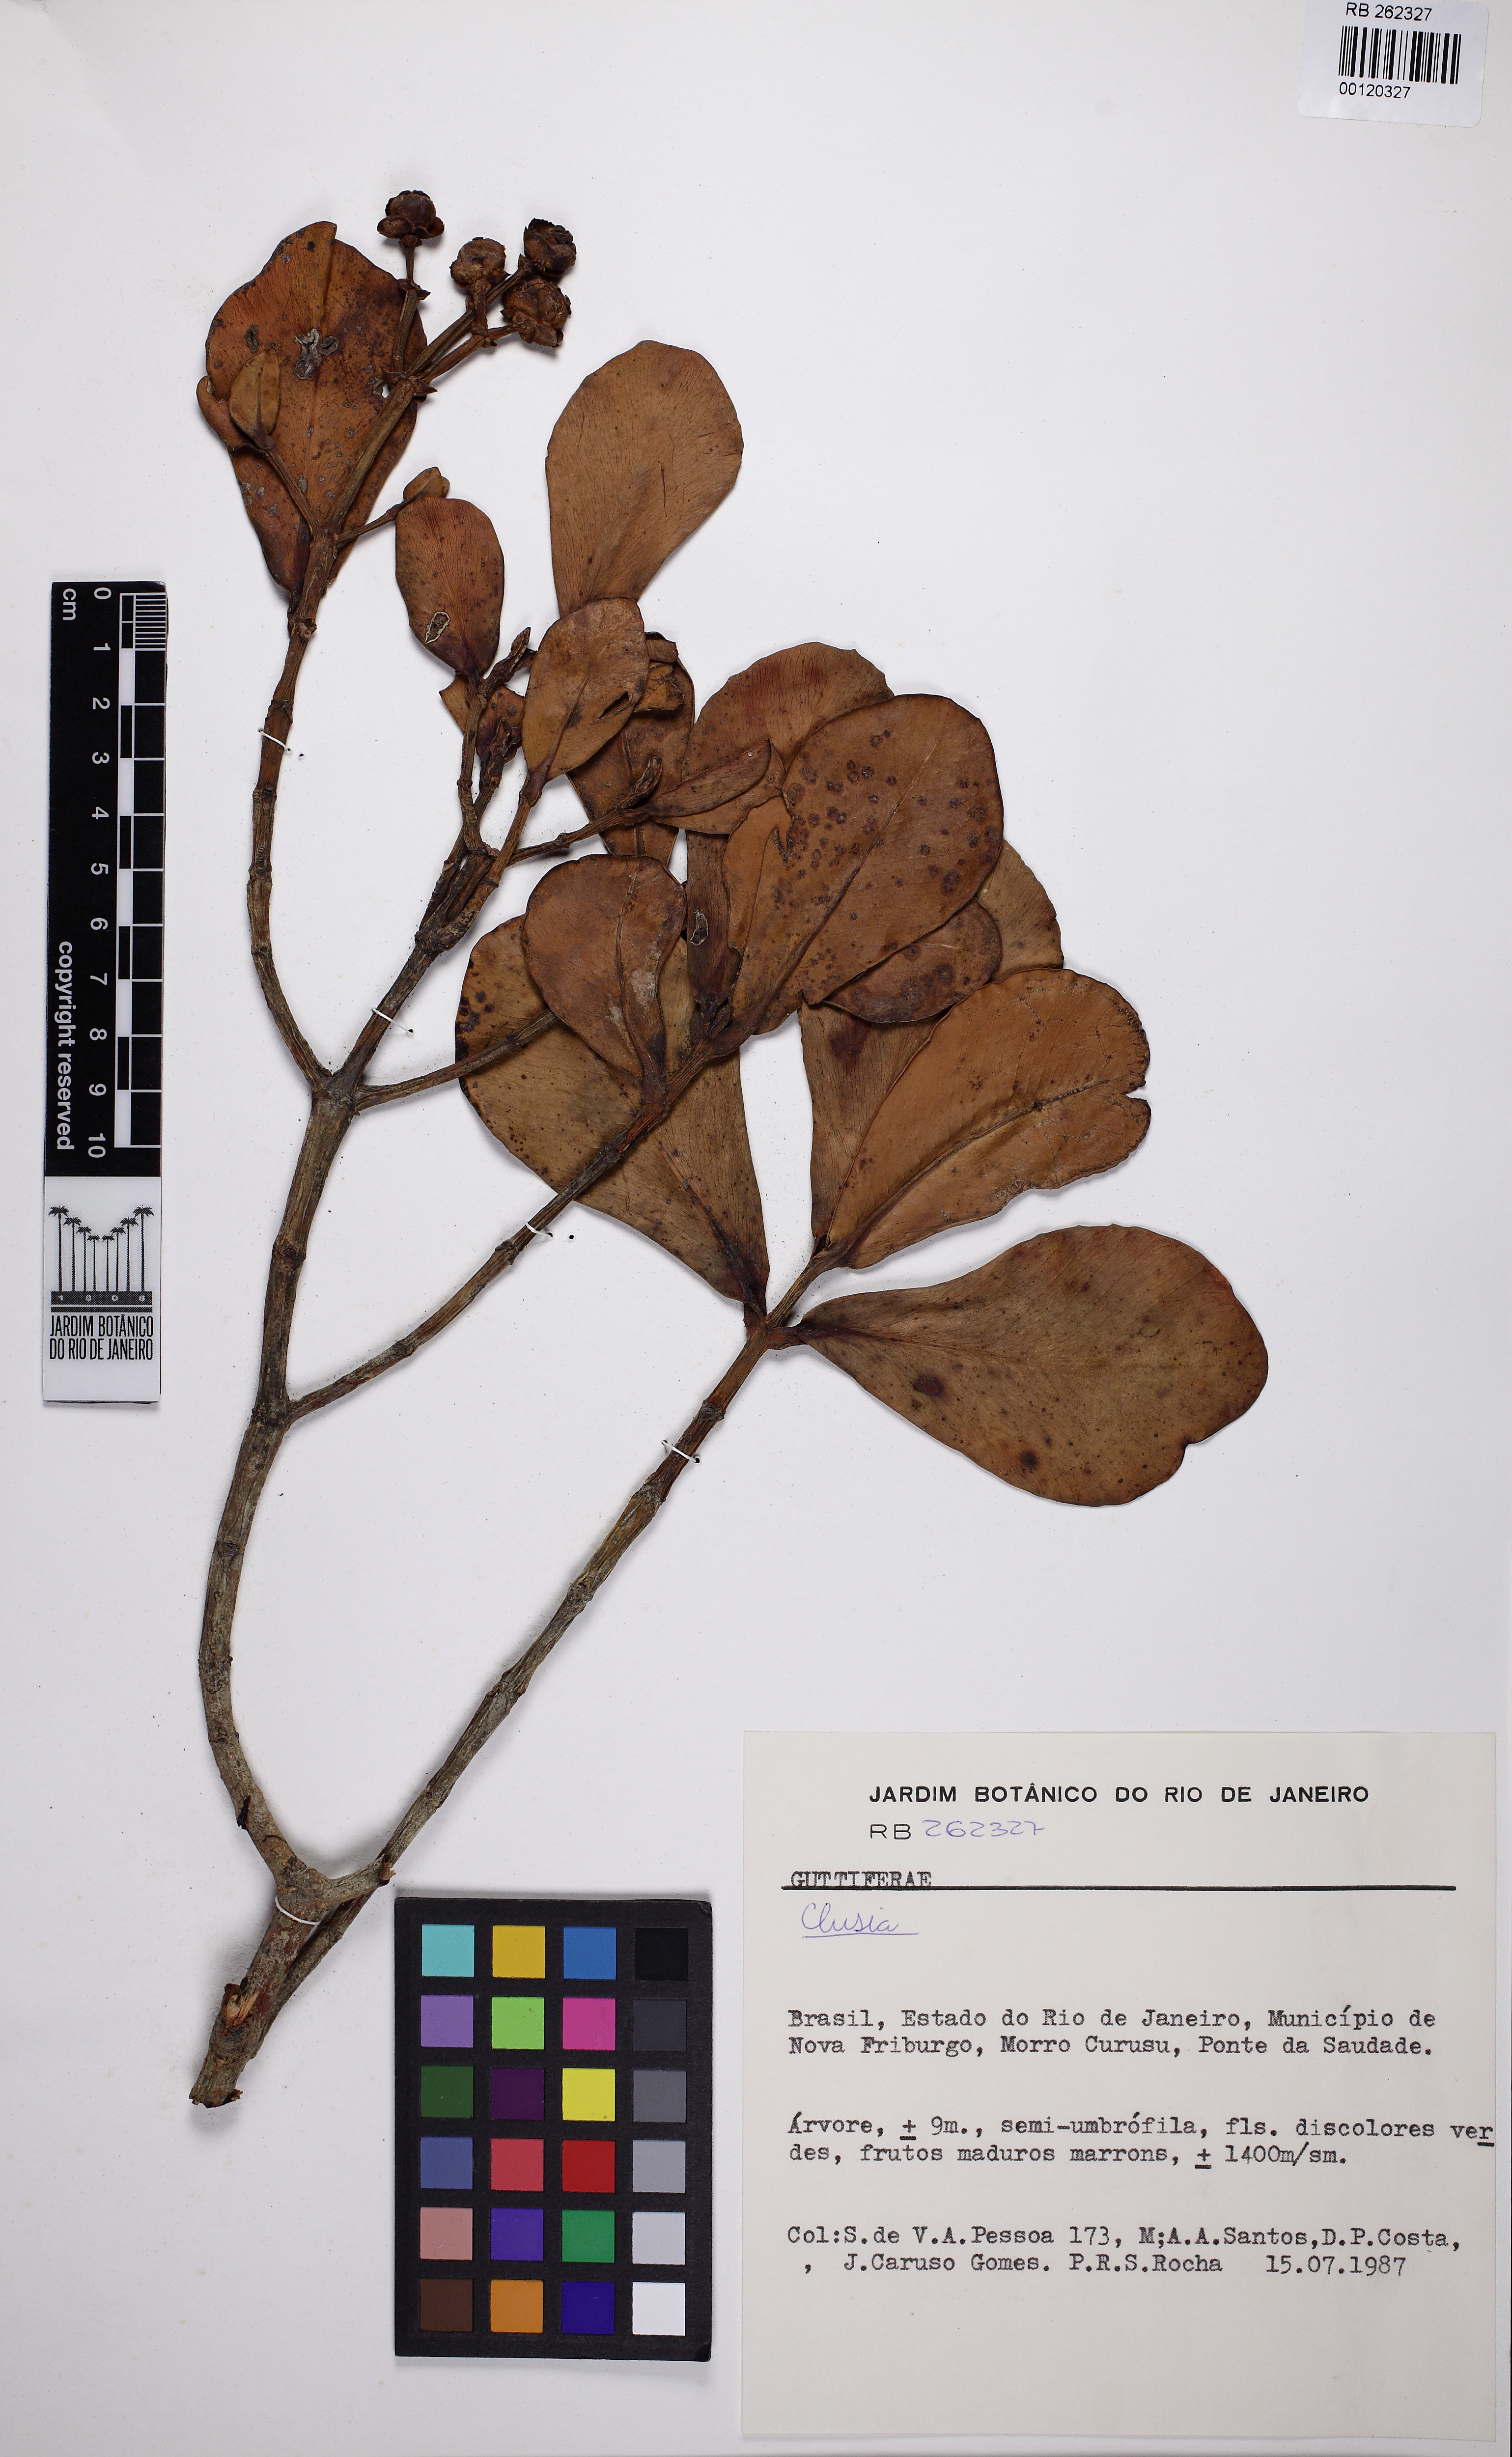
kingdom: Plantae
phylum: Tracheophyta
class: Magnoliopsida
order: Malpighiales
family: Clusiaceae
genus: Clusia
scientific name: Clusia criuva
